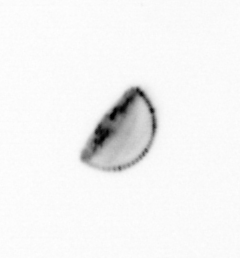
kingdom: Chromista
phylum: Ochrophyta
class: Bacillariophyceae
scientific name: Bacillariophyceae
